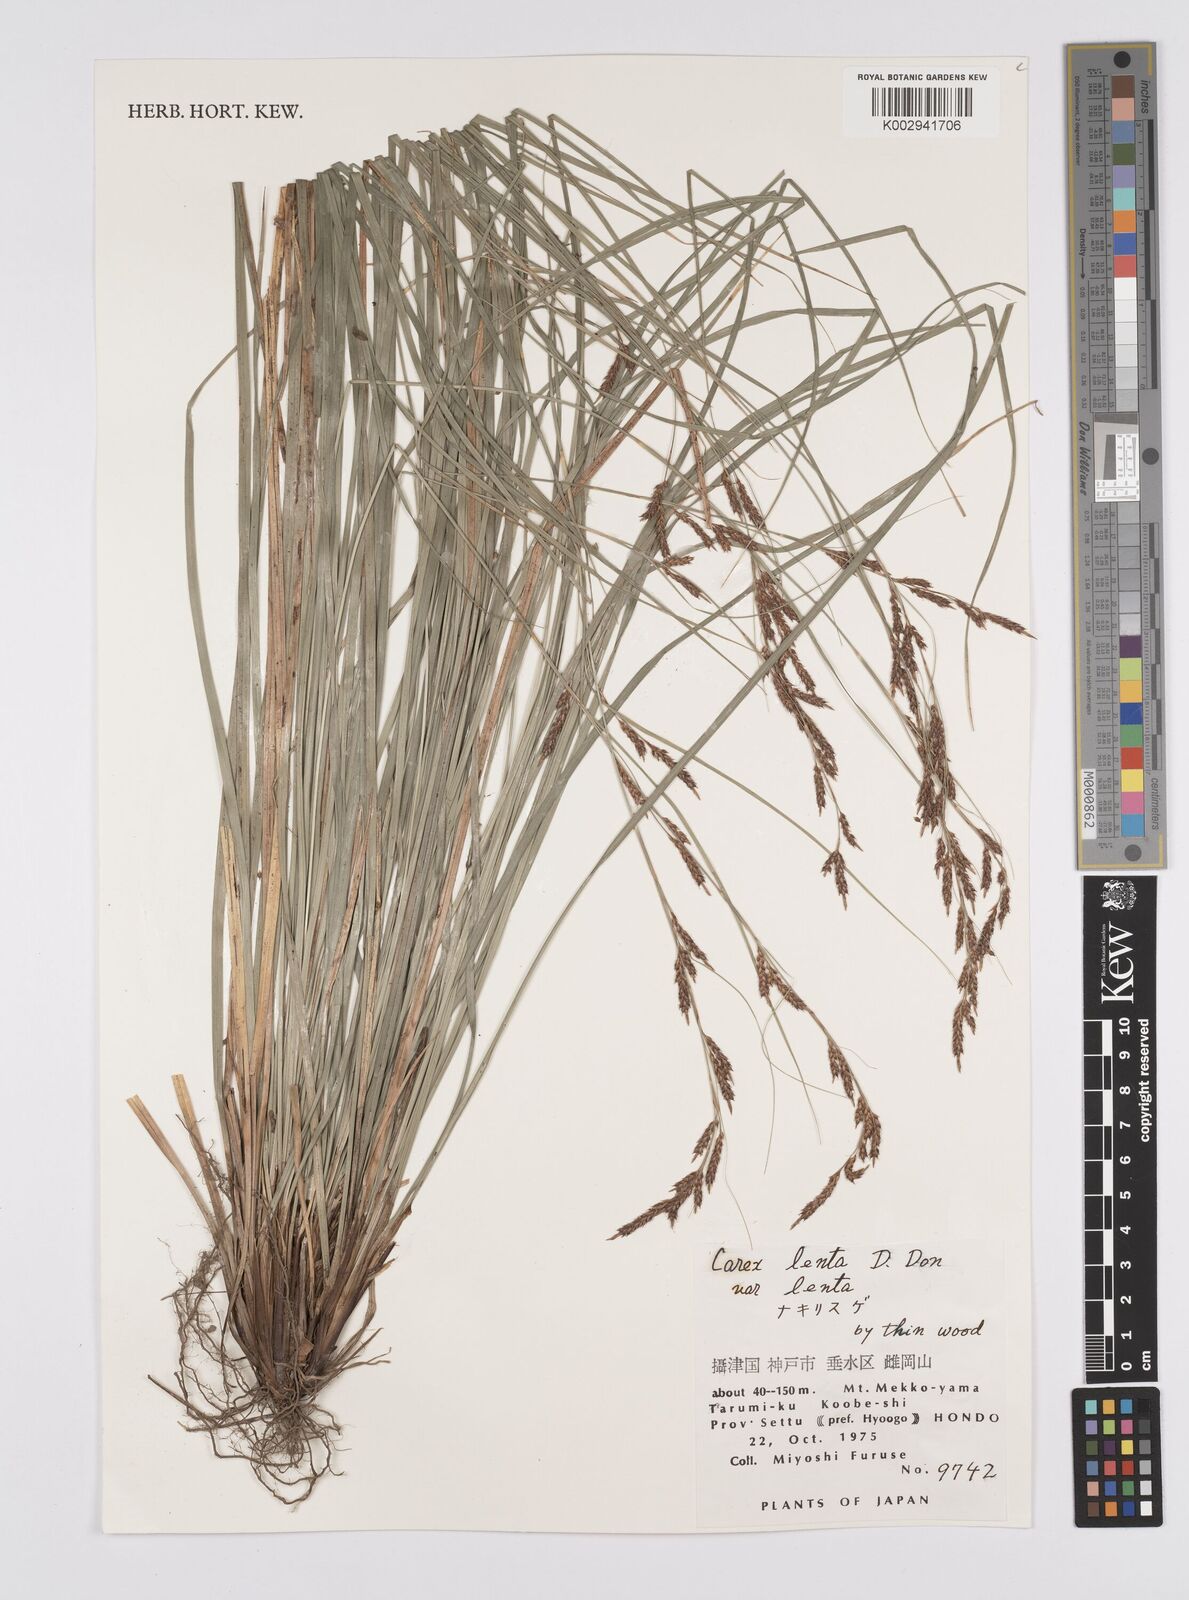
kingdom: Plantae
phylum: Tracheophyta
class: Liliopsida
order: Poales
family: Cyperaceae
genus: Carex
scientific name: Carex brunnea
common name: Greater brown sedge
